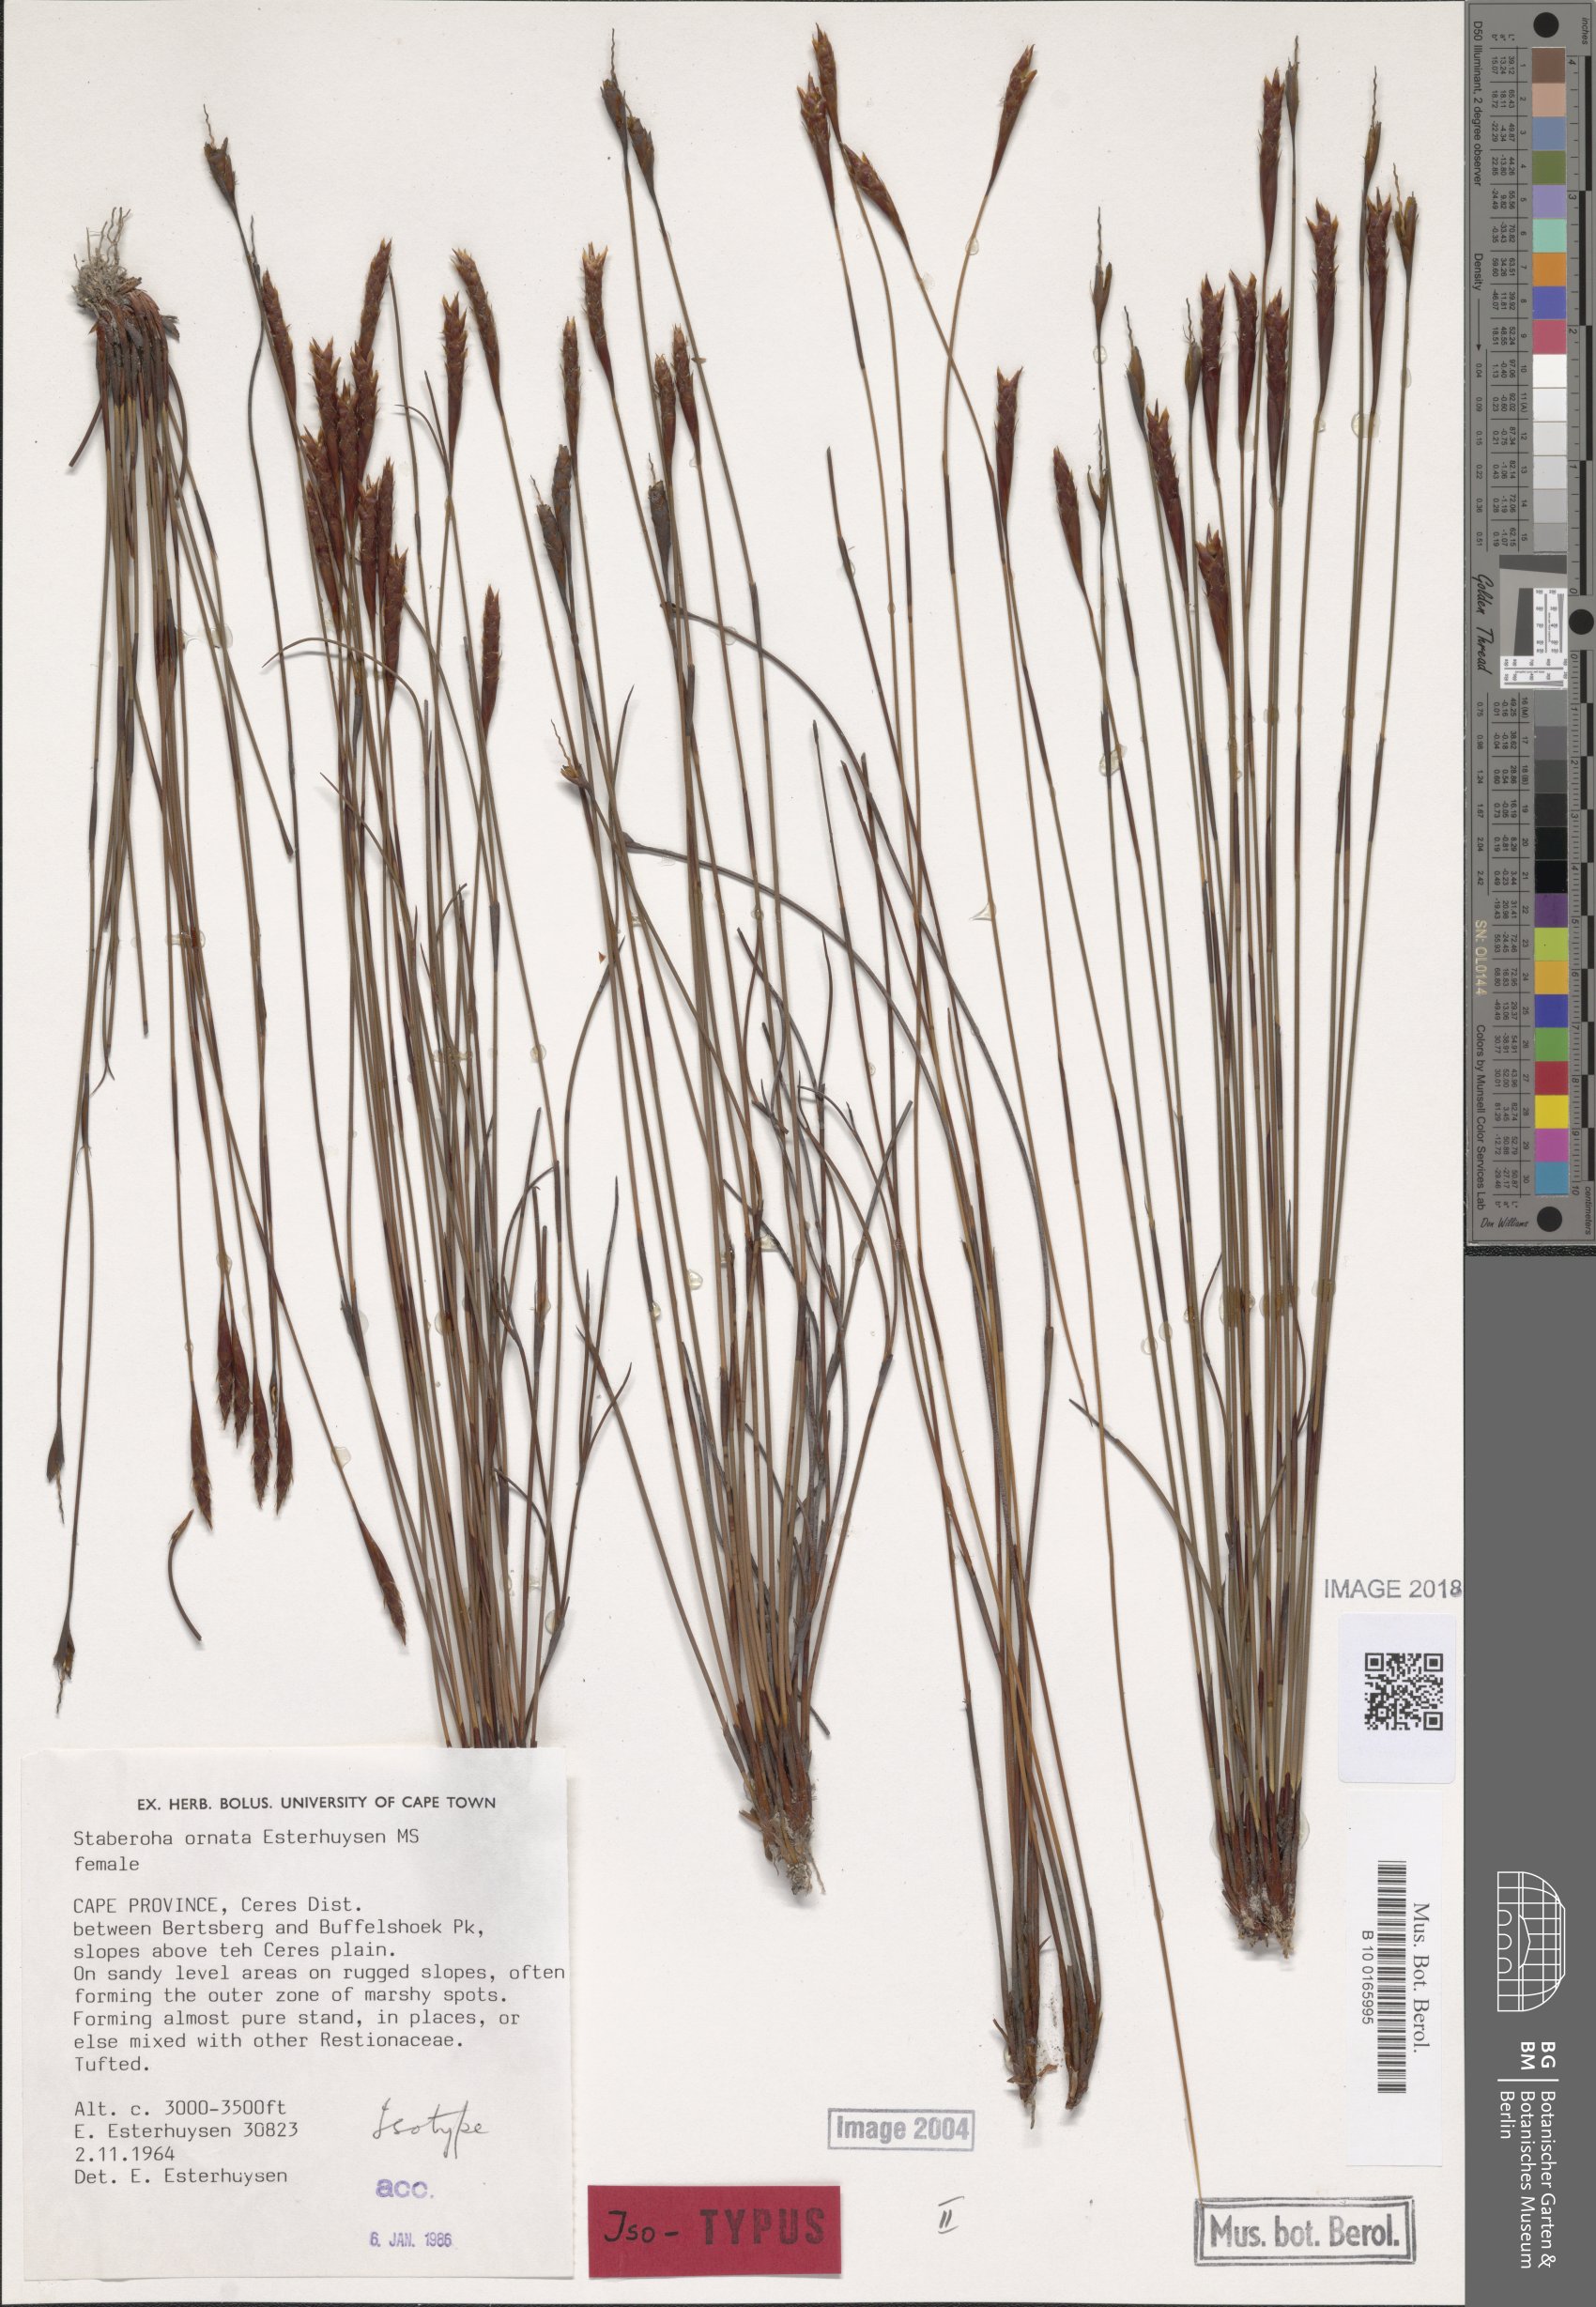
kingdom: Plantae
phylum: Tracheophyta
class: Liliopsida
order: Poales
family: Restionaceae
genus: Staberoha
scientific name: Staberoha ornata
